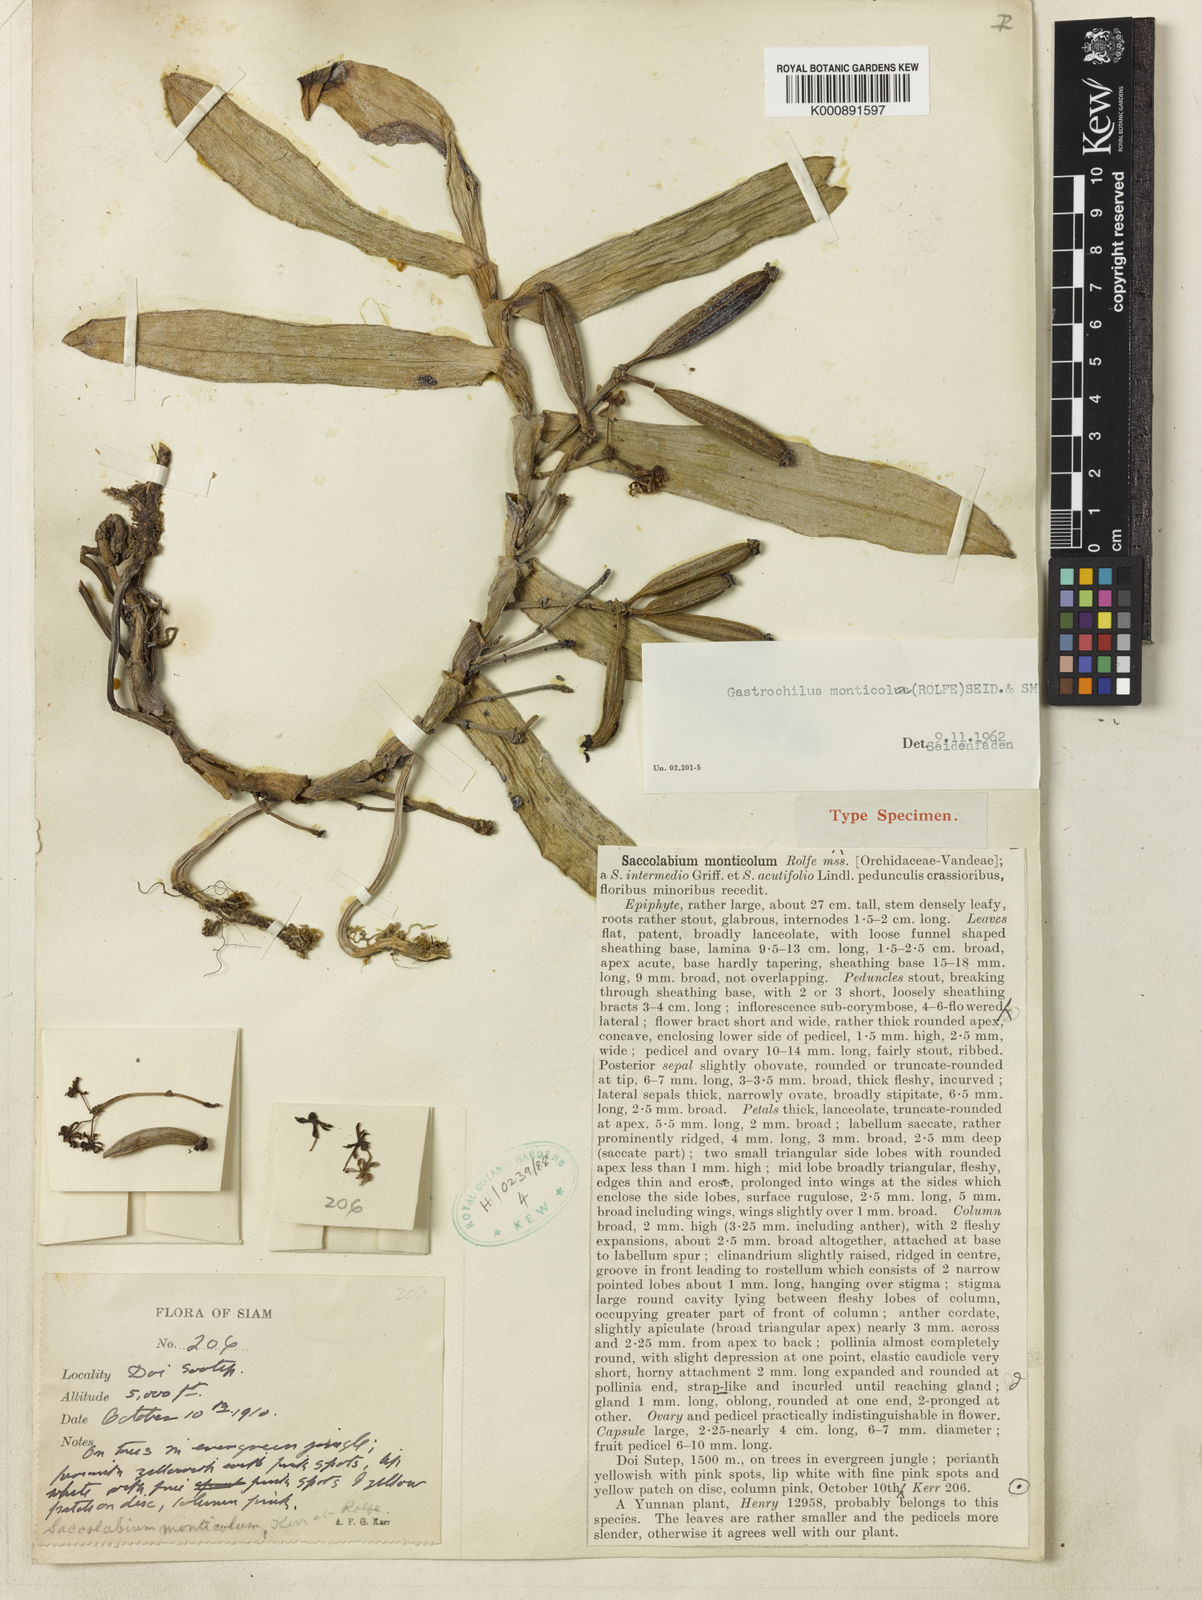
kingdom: Plantae
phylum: Tracheophyta
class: Liliopsida
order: Asparagales
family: Orchidaceae
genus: Gastrochilus
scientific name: Gastrochilus yunnanensis
